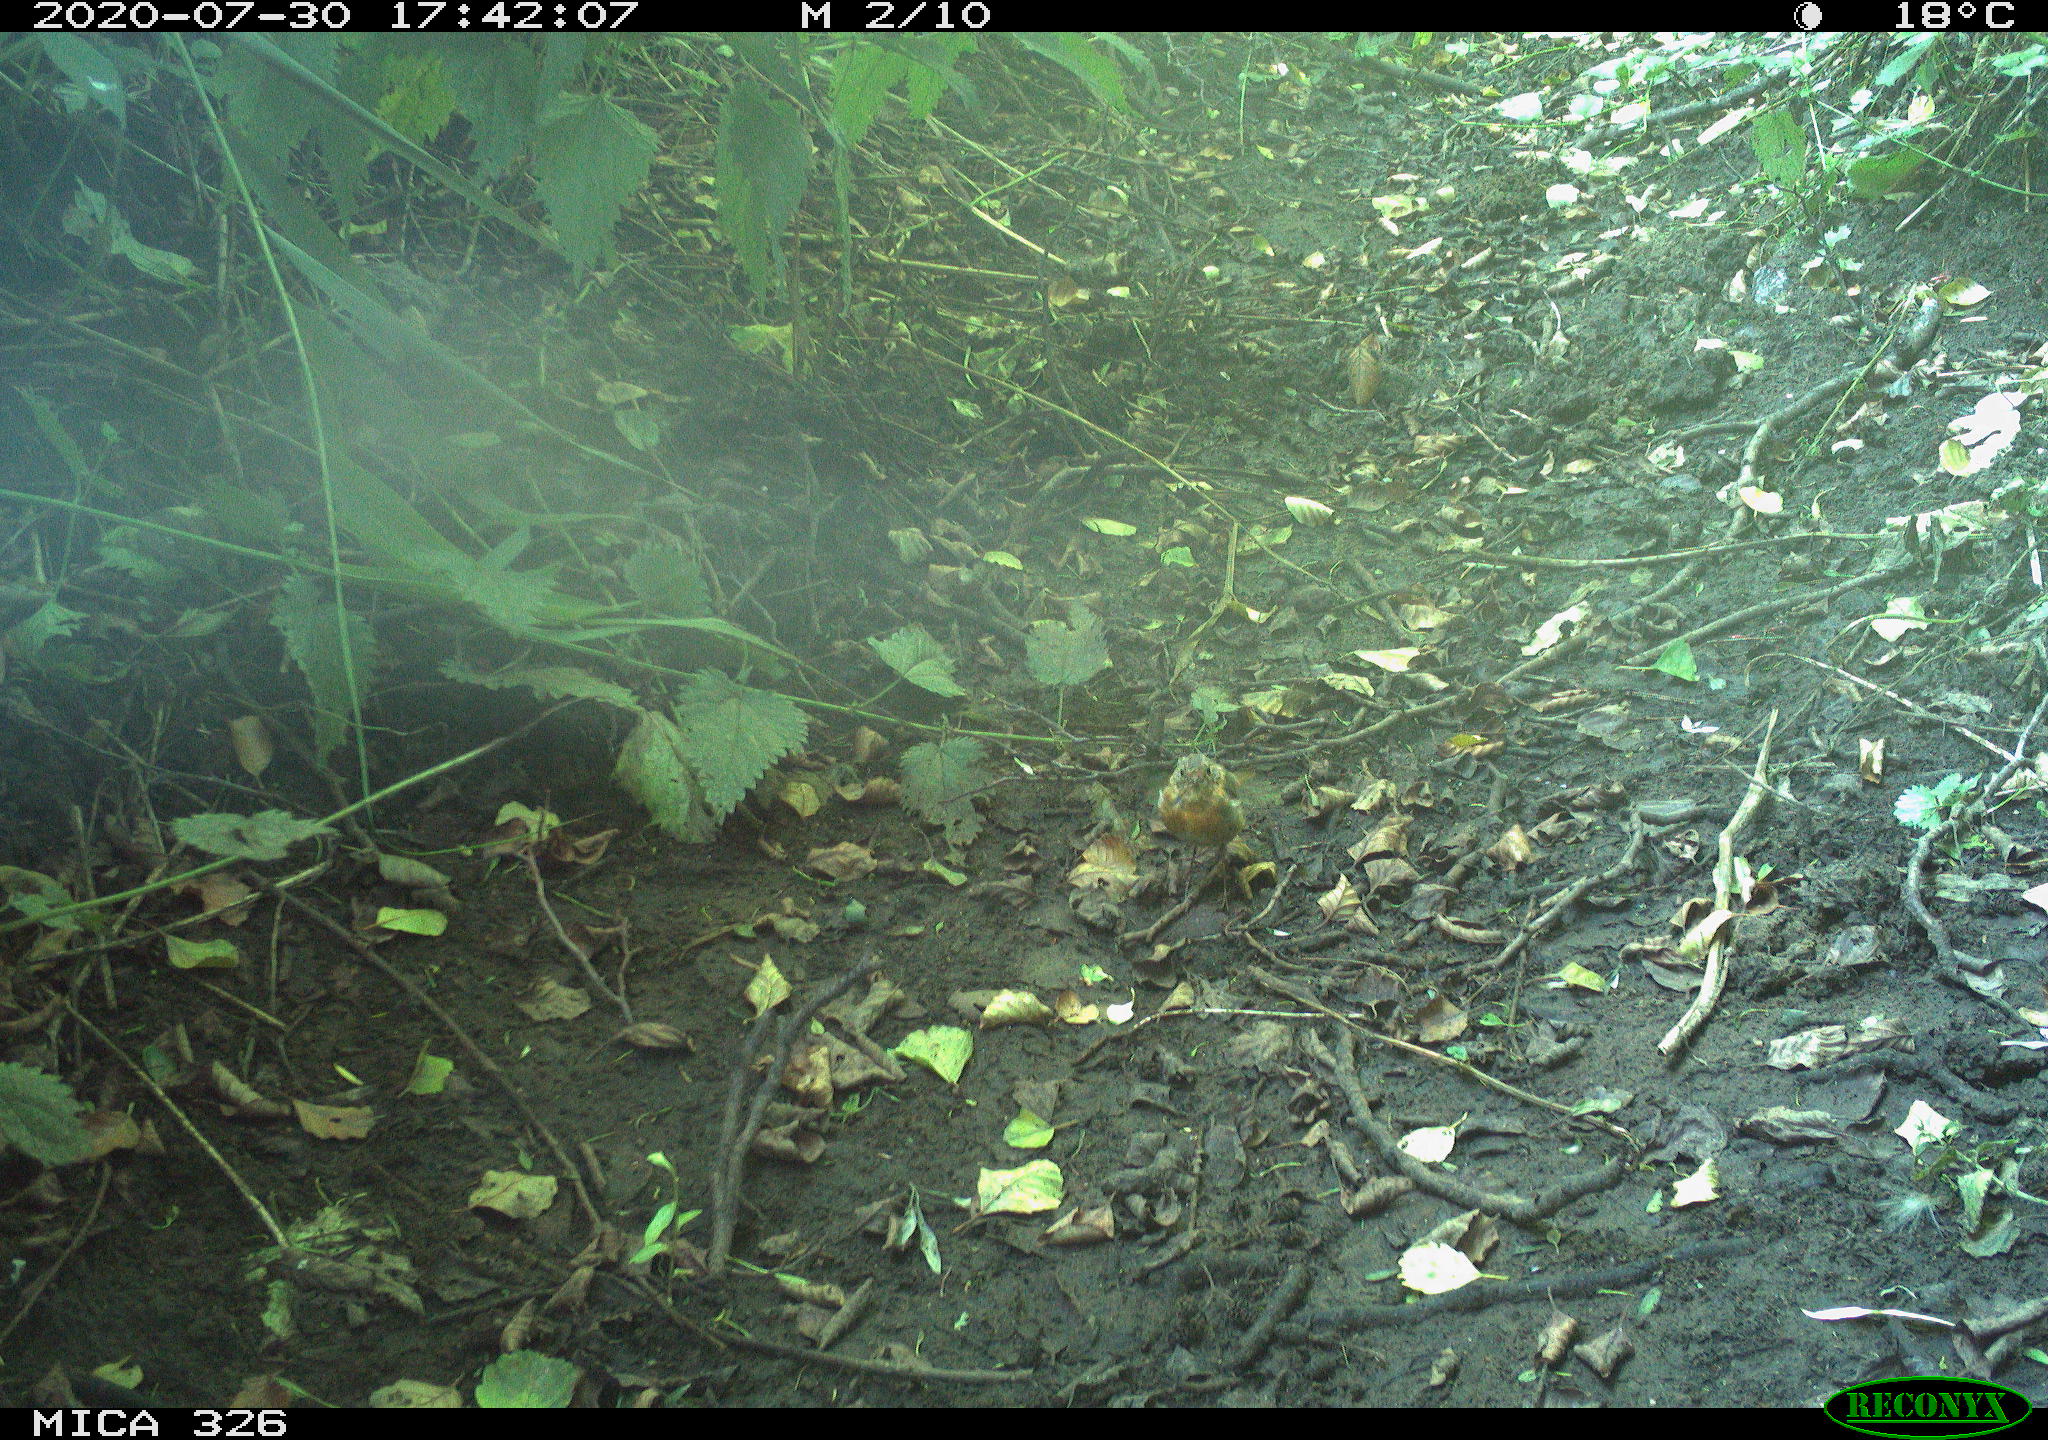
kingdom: Animalia
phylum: Chordata
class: Aves
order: Passeriformes
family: Muscicapidae
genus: Erithacus
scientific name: Erithacus rubecula
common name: European robin
